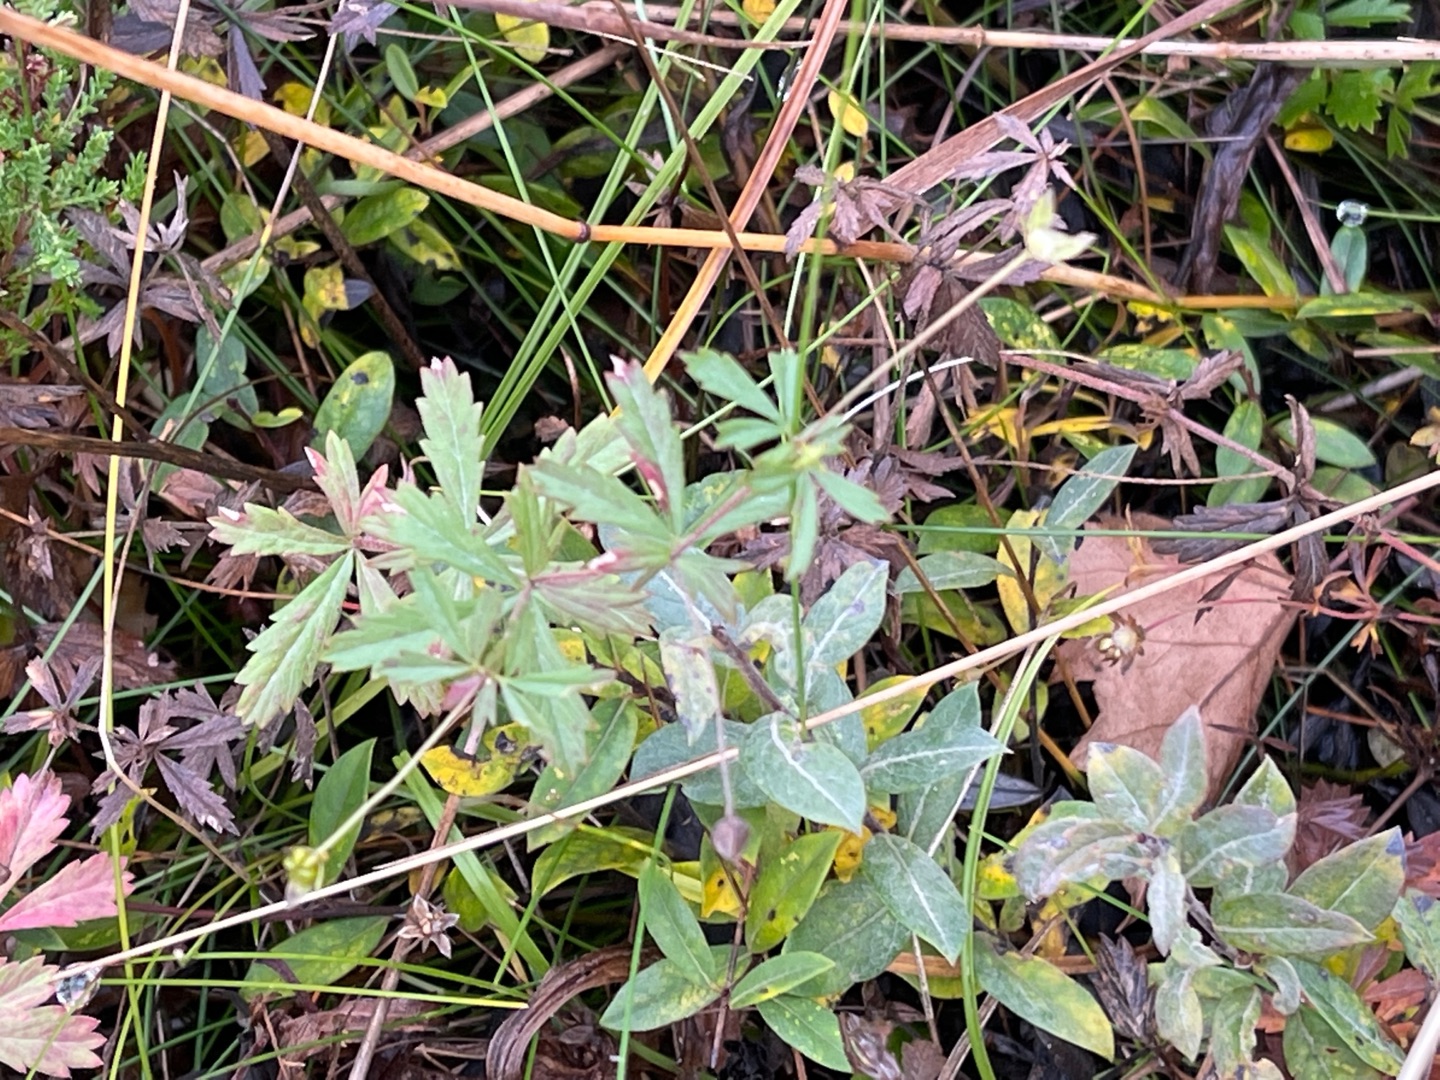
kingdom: Plantae
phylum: Tracheophyta
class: Magnoliopsida
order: Rosales
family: Rosaceae
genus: Potentilla
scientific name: Potentilla erecta
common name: Tormentil
